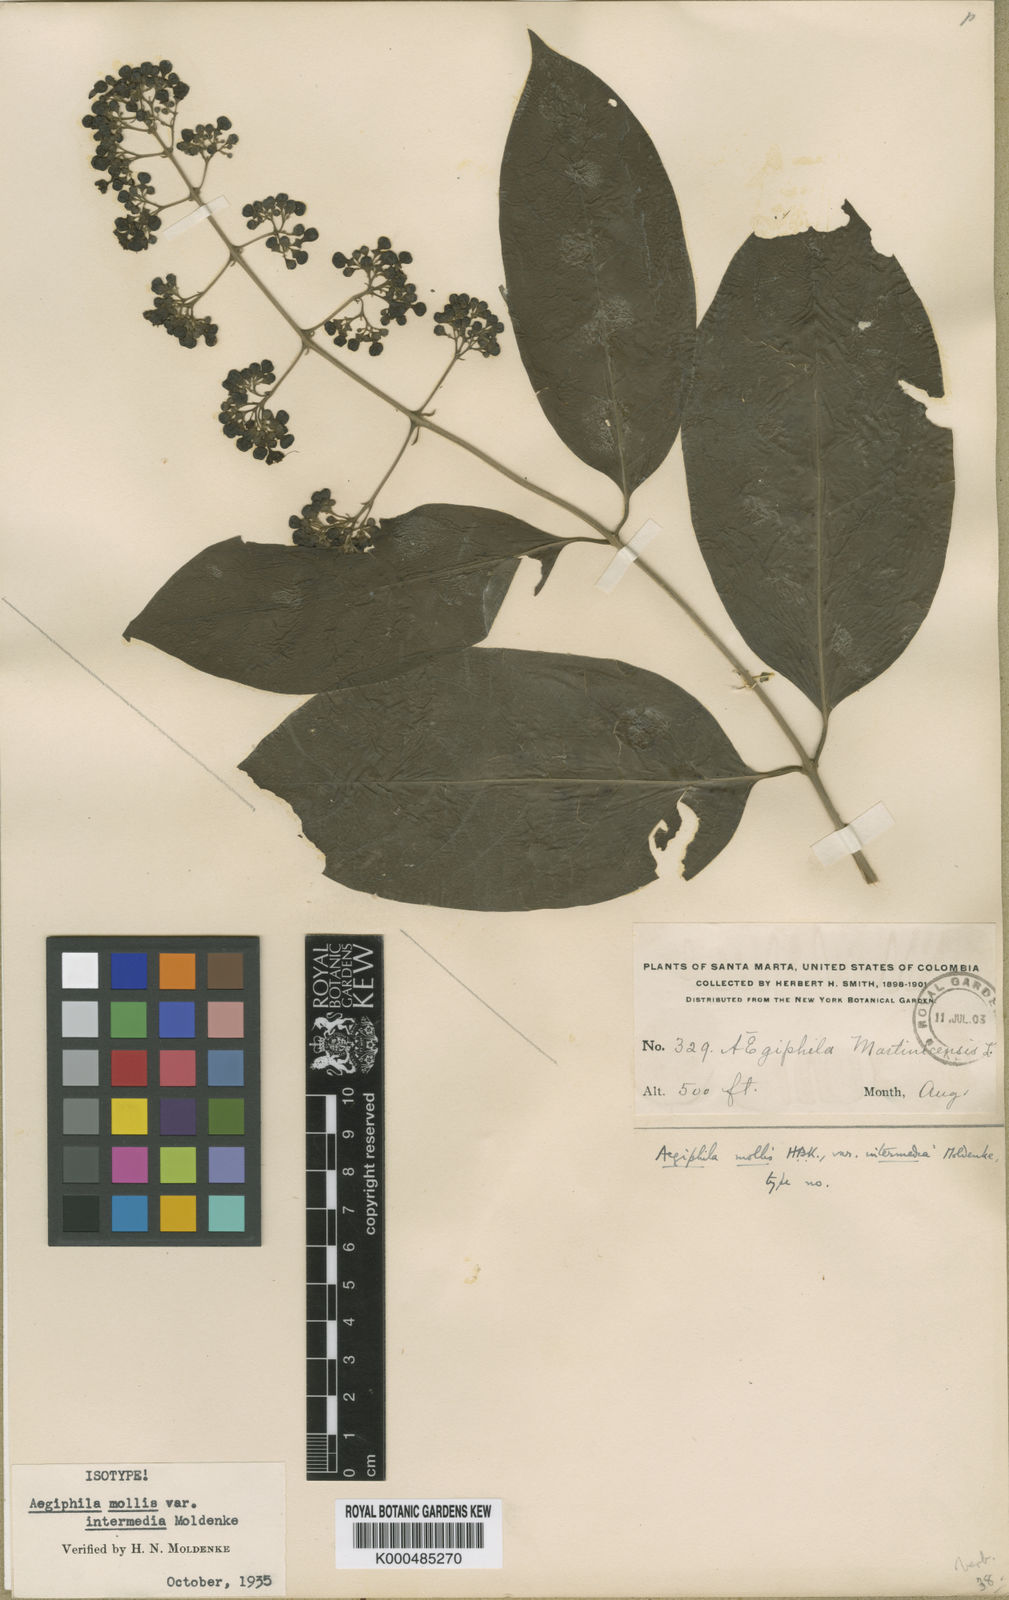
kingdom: Plantae
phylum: Tracheophyta
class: Magnoliopsida
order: Lamiales
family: Lamiaceae
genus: Aegiphila
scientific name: Aegiphila mollis
